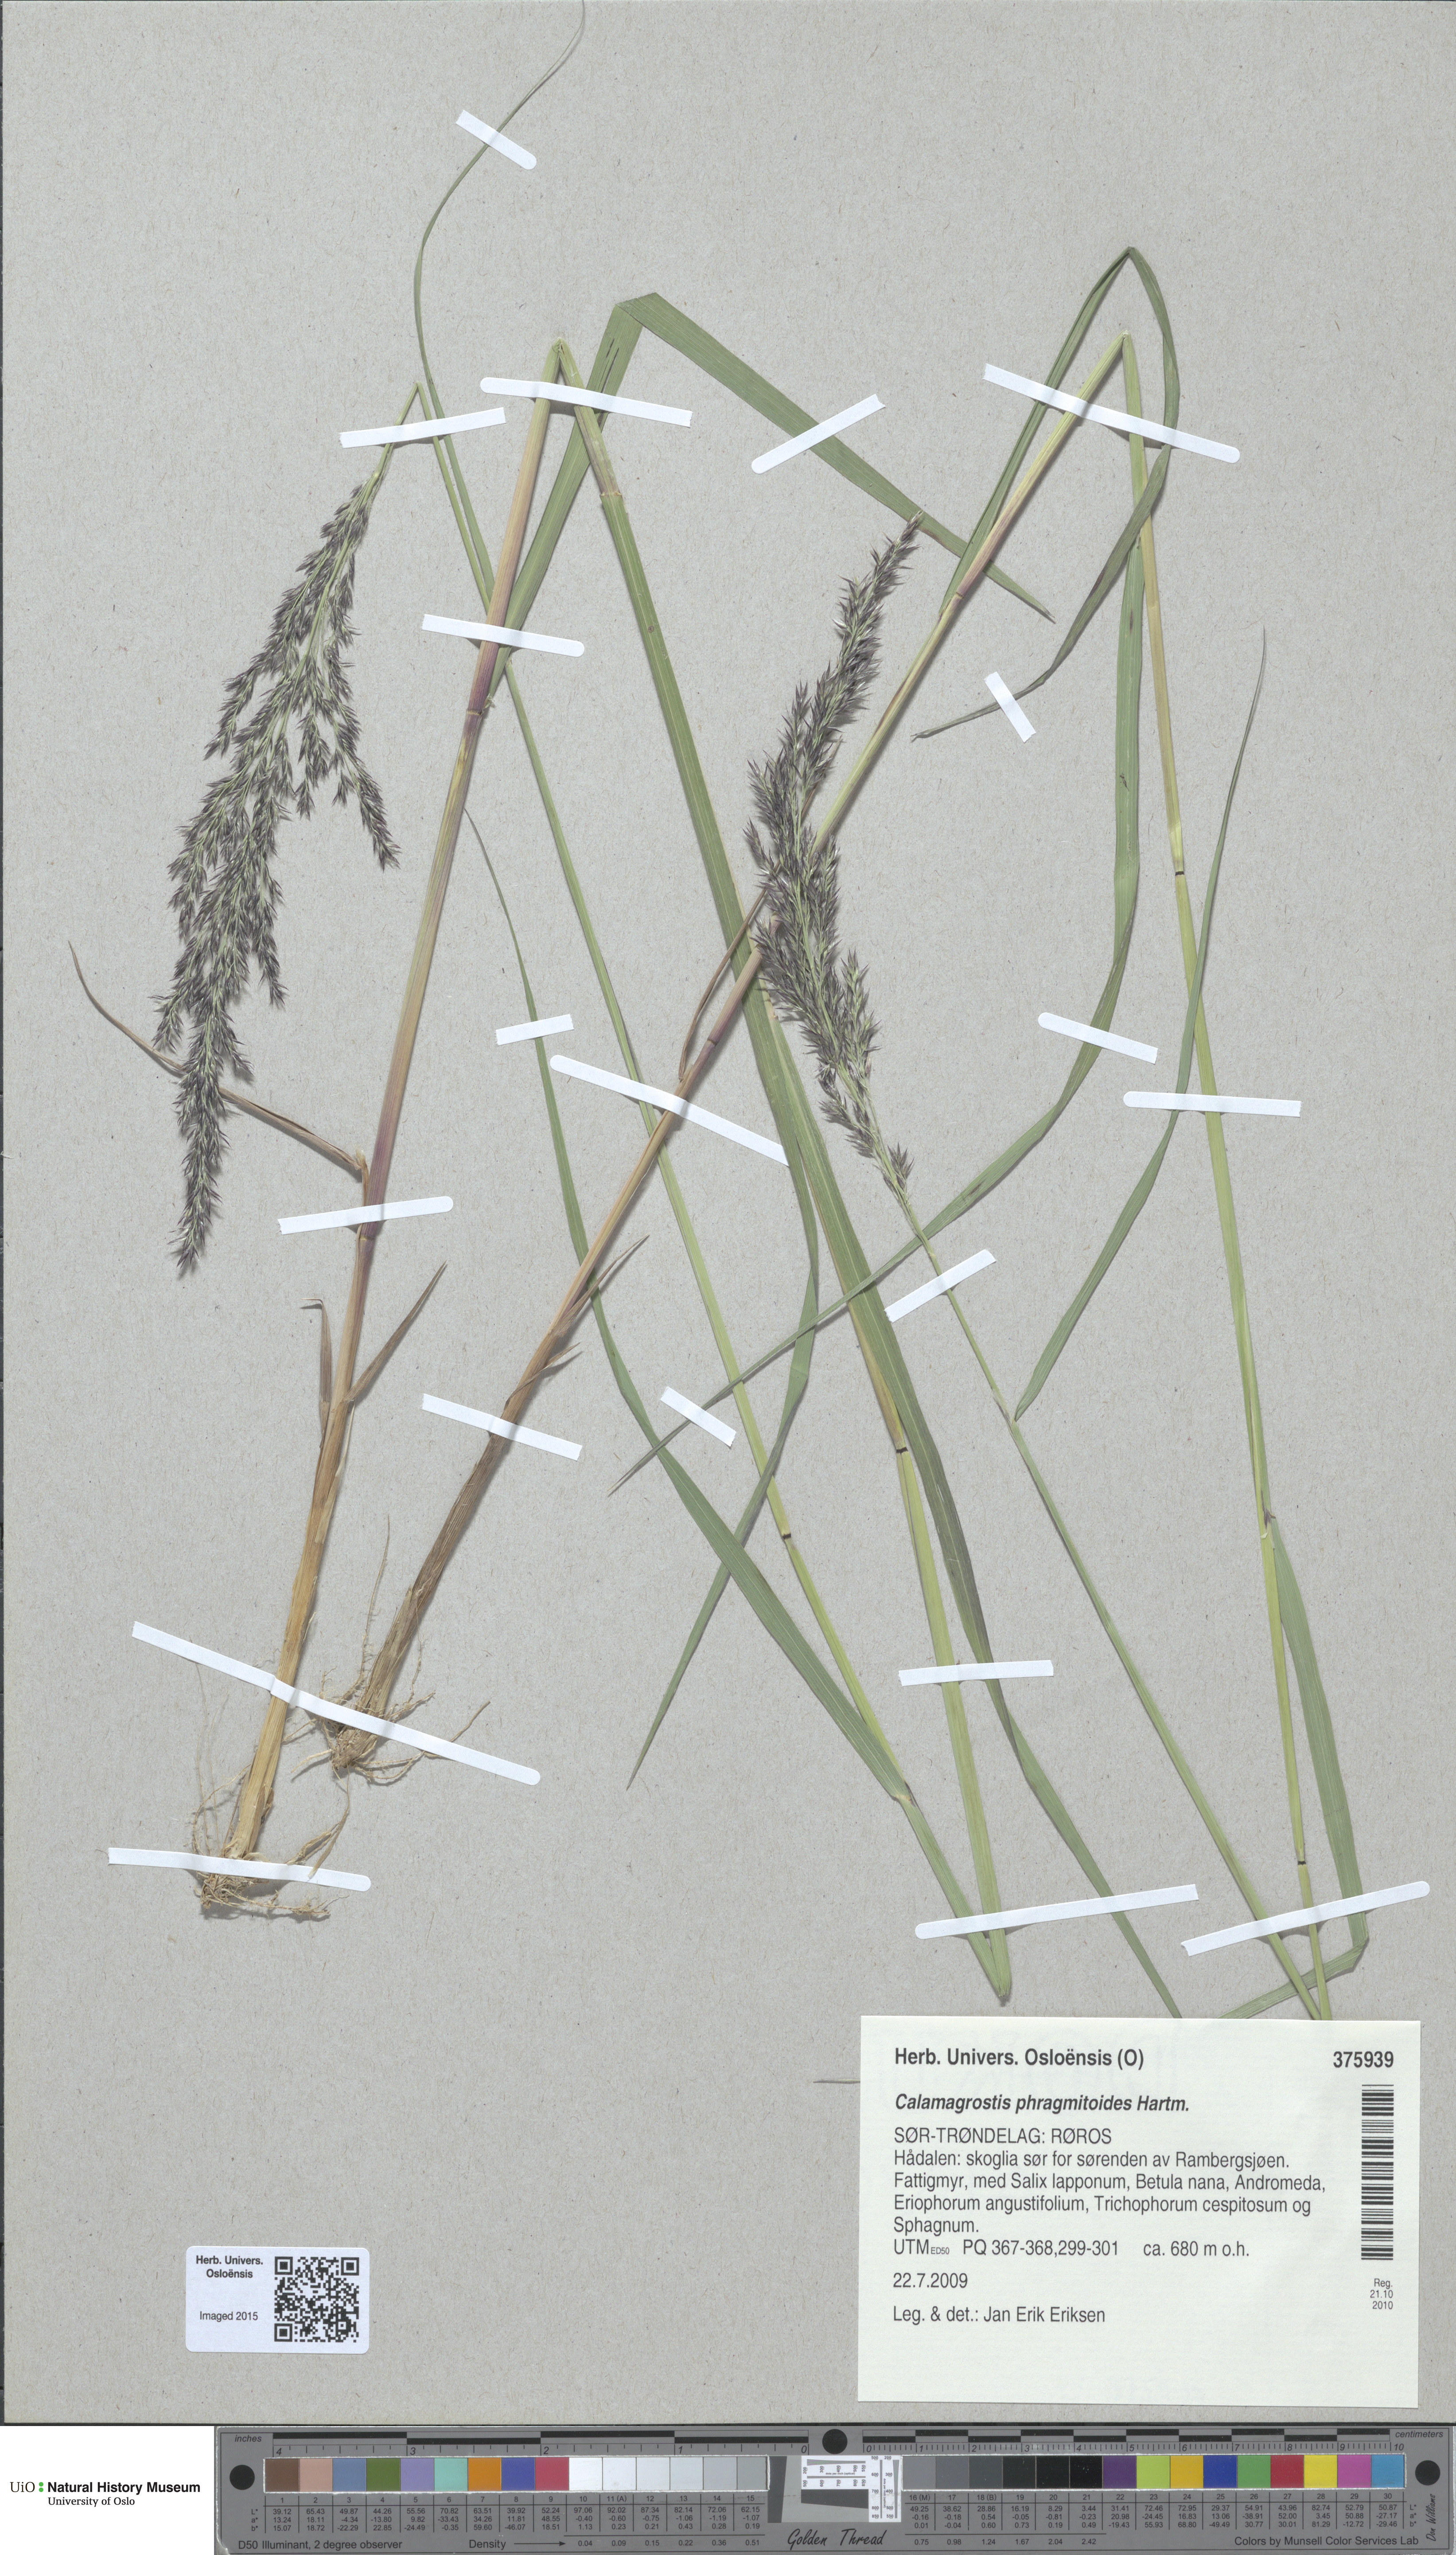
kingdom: Plantae
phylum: Tracheophyta
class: Liliopsida
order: Poales
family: Poaceae
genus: Calamagrostis
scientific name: Calamagrostis purpurea
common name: Scandinavian small-reed
